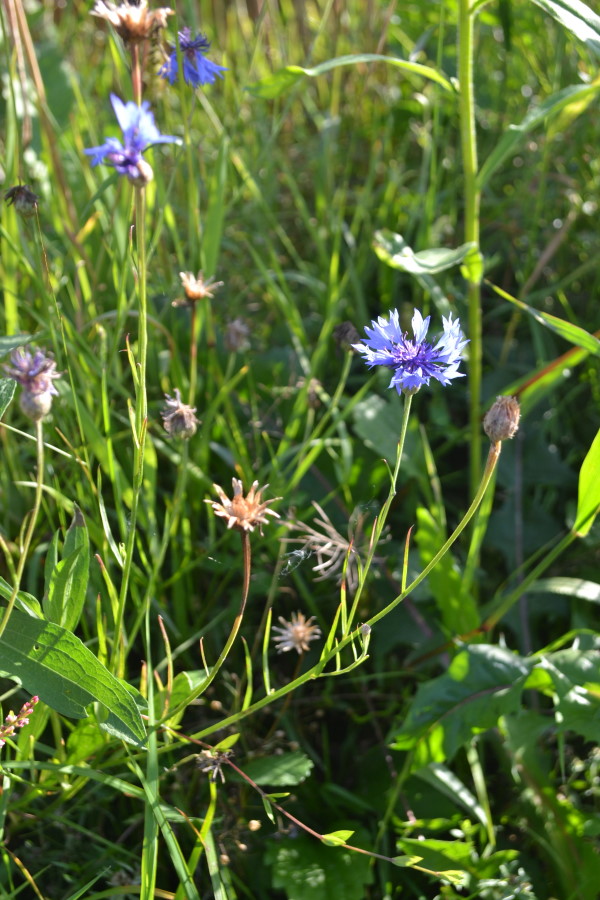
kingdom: Plantae
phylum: Tracheophyta
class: Magnoliopsida
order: Asterales
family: Asteraceae
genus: Centaurea
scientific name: Centaurea cyanus
